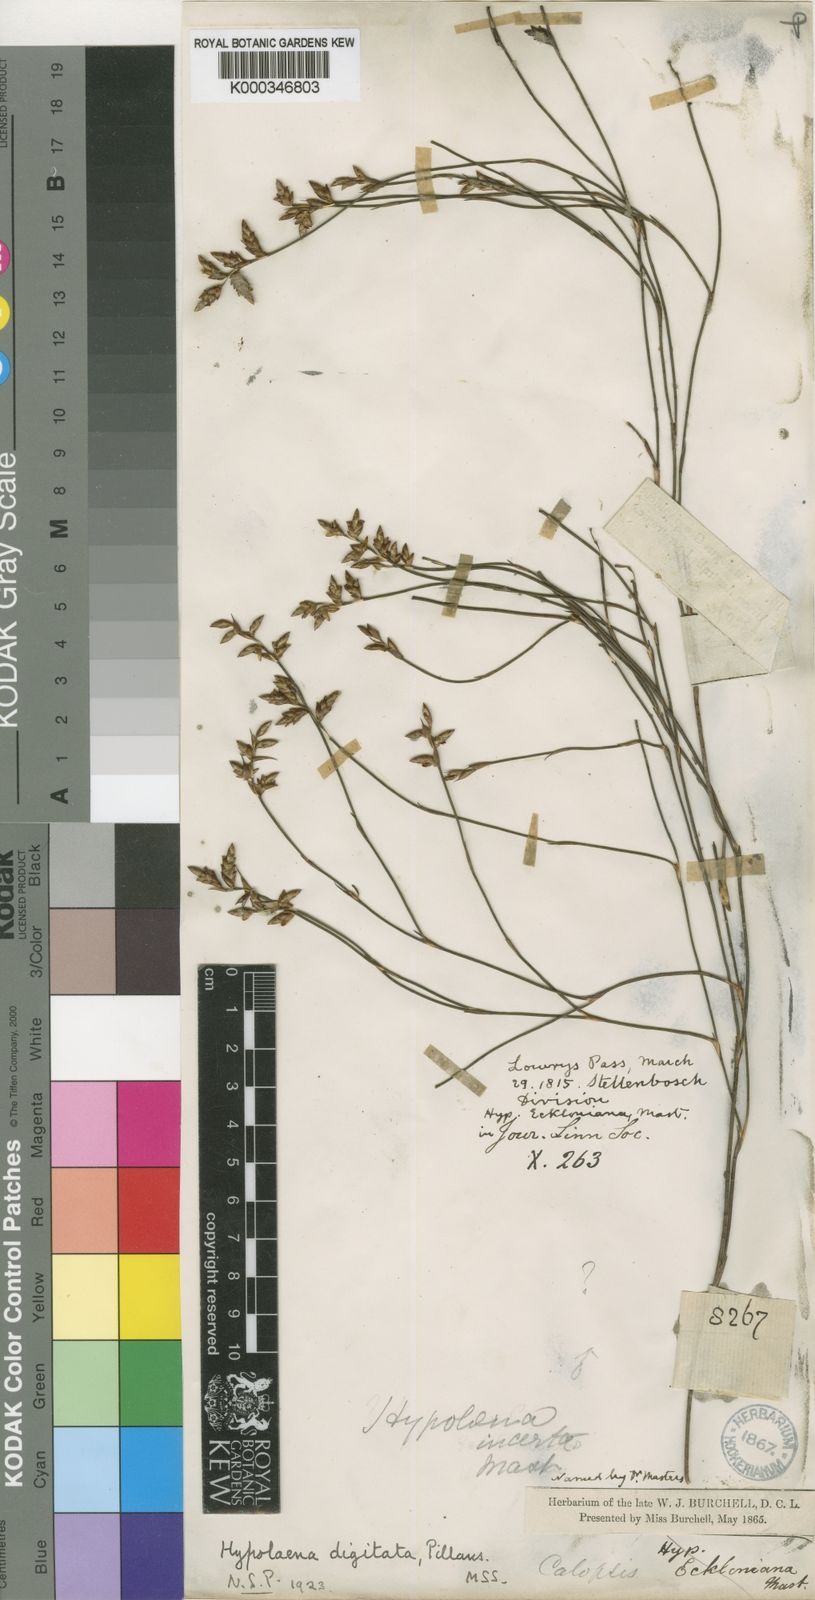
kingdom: Plantae
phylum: Tracheophyta
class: Liliopsida
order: Poales
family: Restionaceae
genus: Mastersiella
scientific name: Mastersiella digitata
